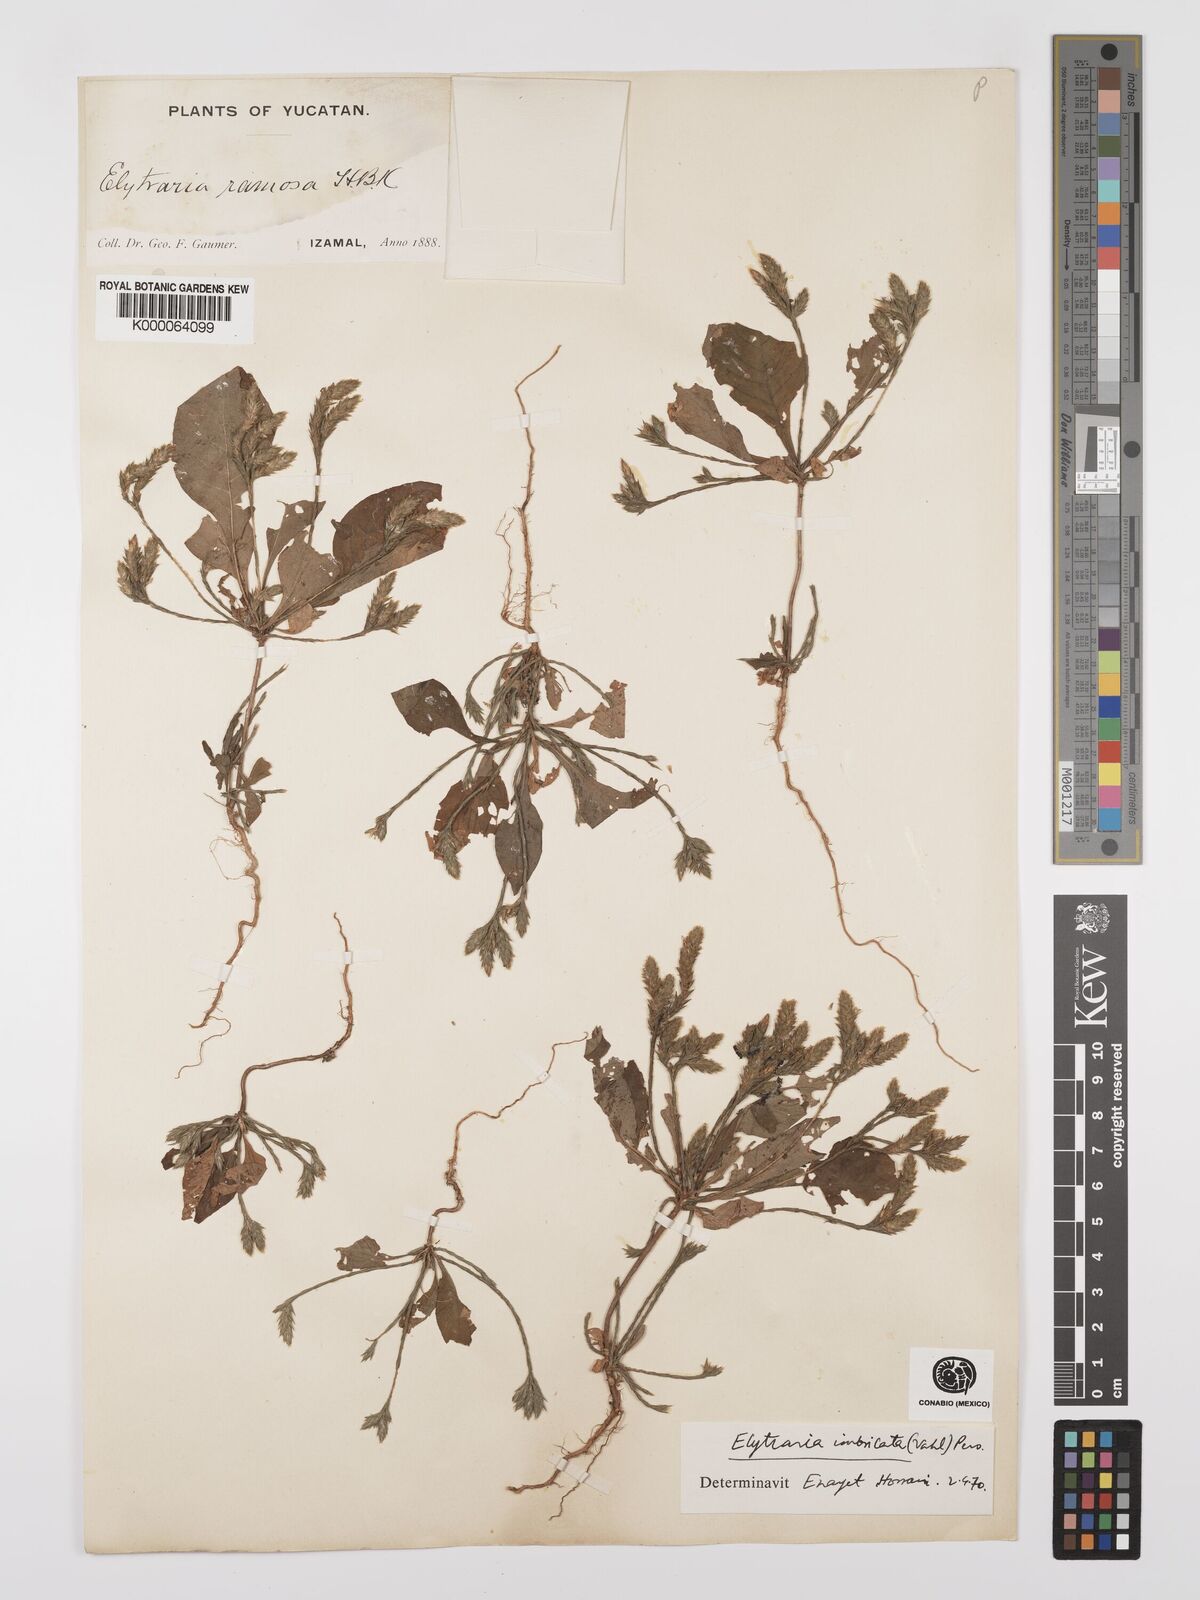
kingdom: Plantae
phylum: Tracheophyta
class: Magnoliopsida
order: Lamiales
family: Acanthaceae
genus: Elytraria
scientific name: Elytraria imbricata
